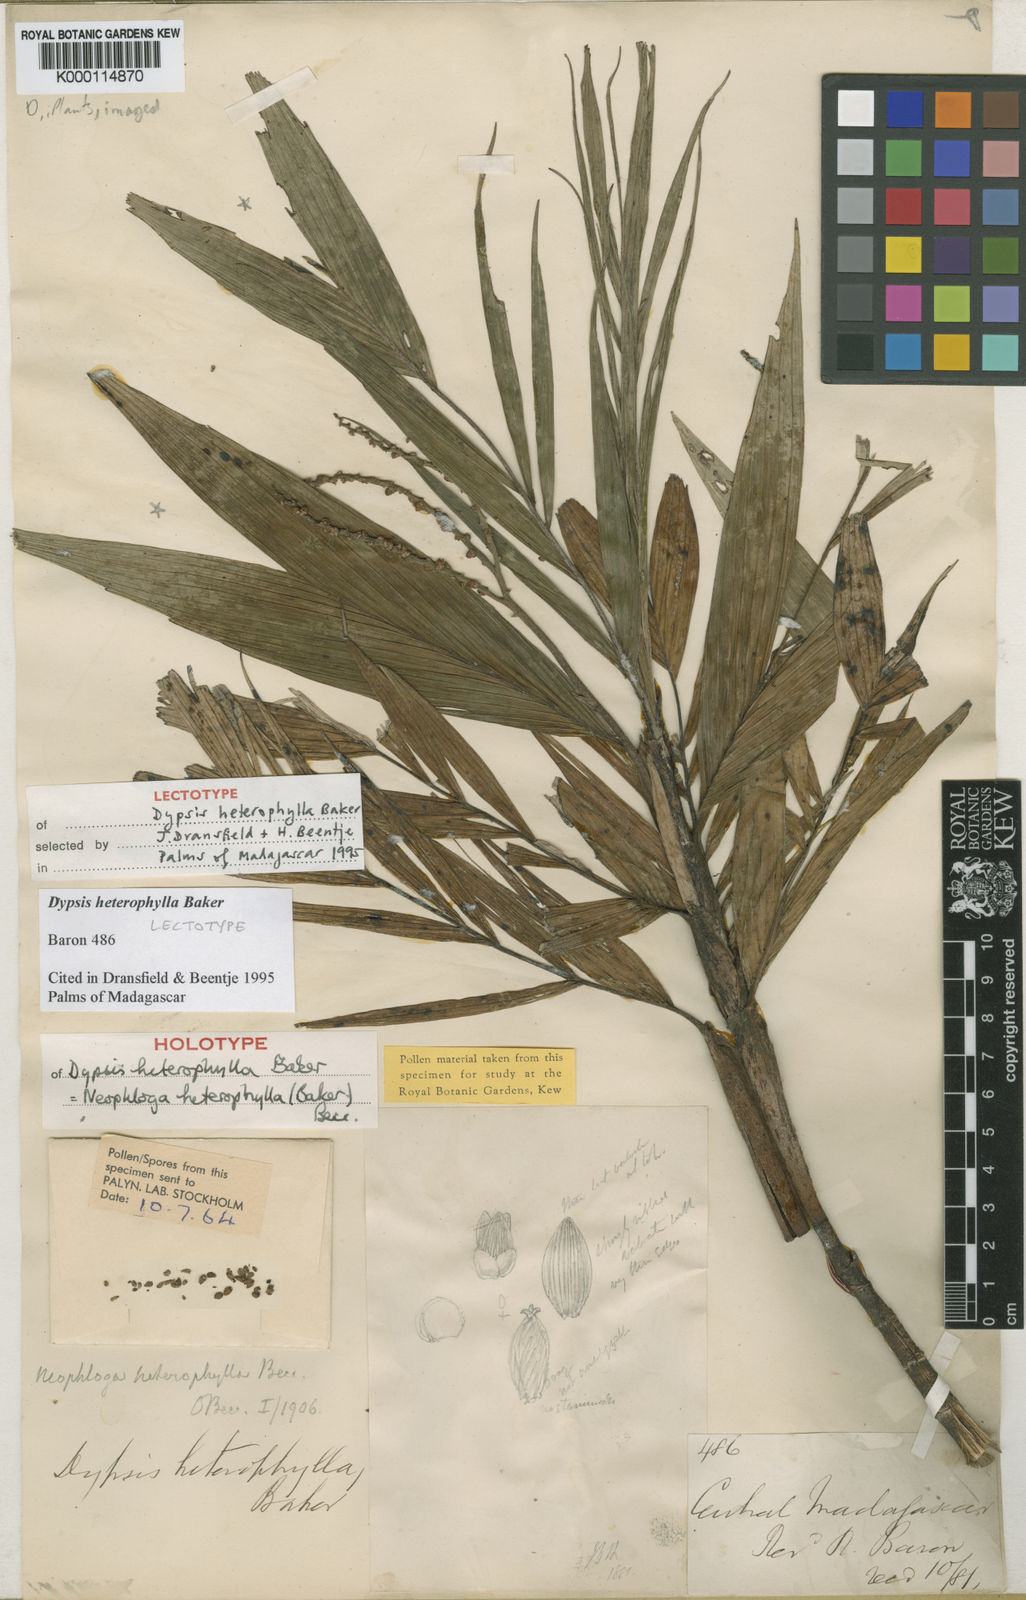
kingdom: Plantae
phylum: Tracheophyta
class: Liliopsida
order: Arecales
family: Arecaceae
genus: Dypsis
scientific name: Dypsis heterophylla
